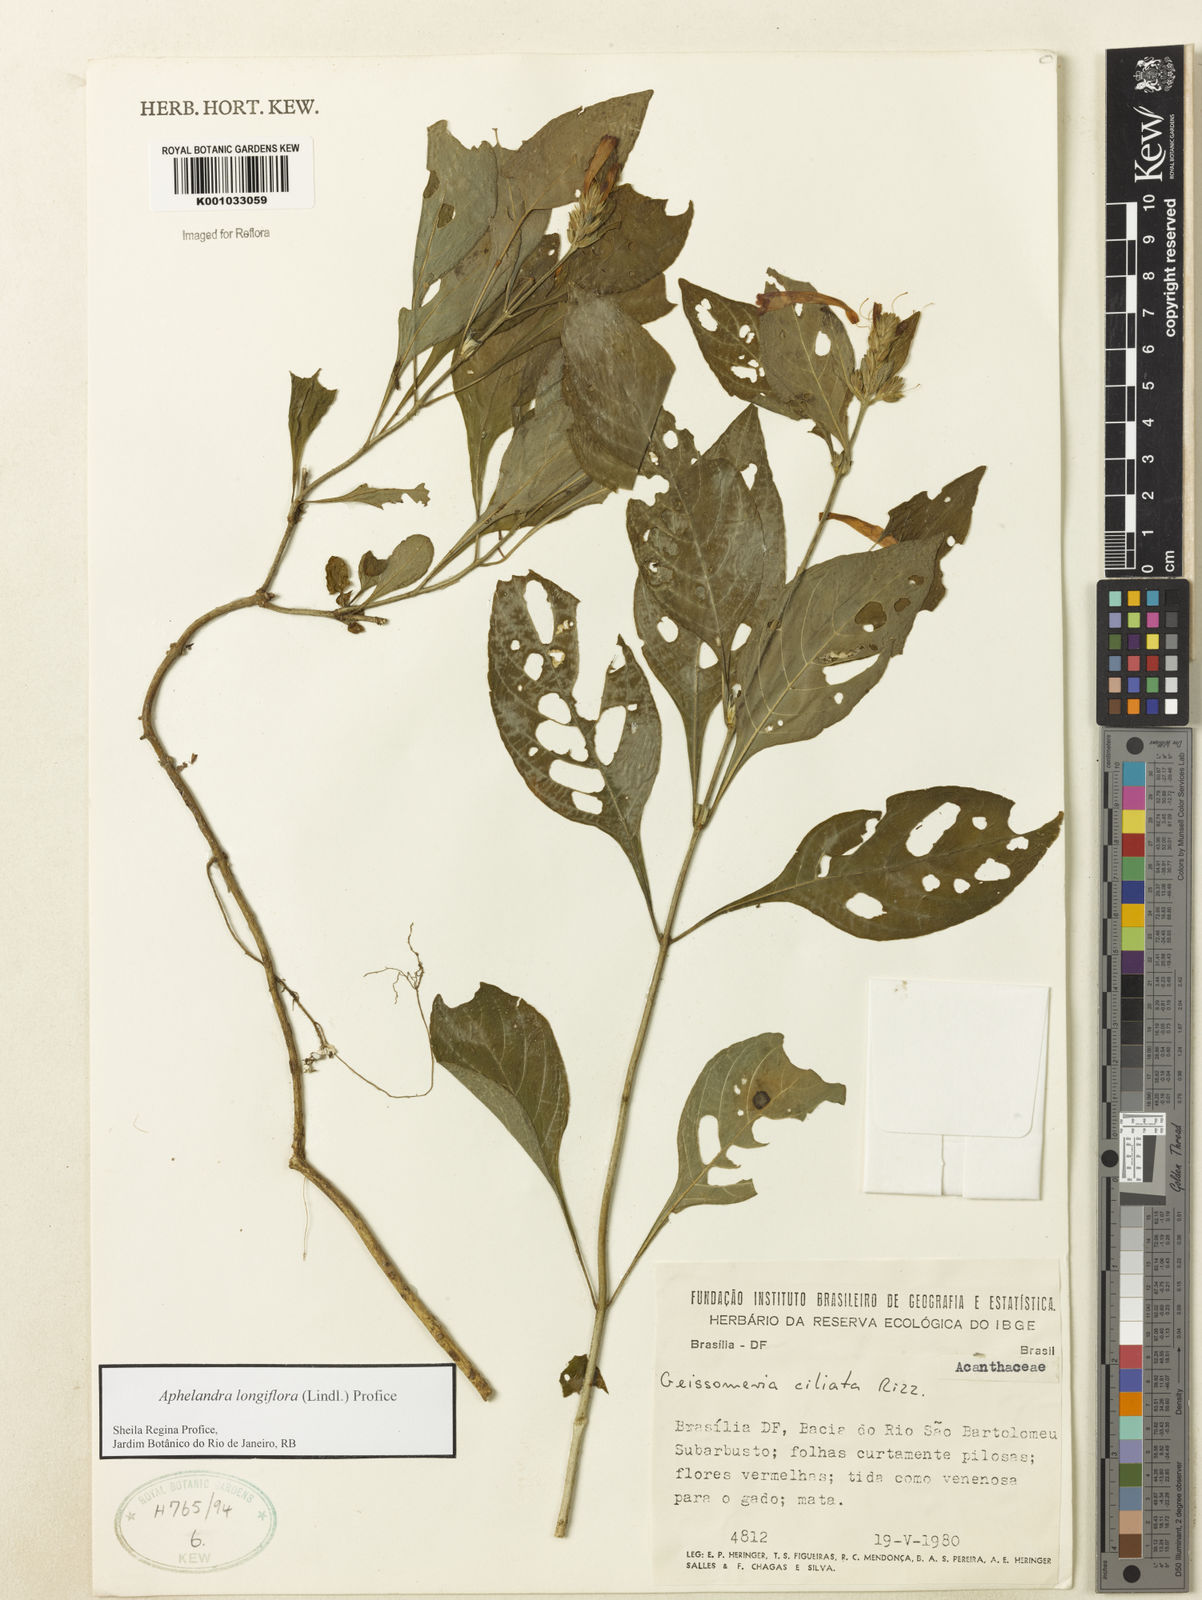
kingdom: Plantae
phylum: Tracheophyta
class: Magnoliopsida
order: Lamiales
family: Acanthaceae
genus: Aphelandra
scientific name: Aphelandra longiflora
